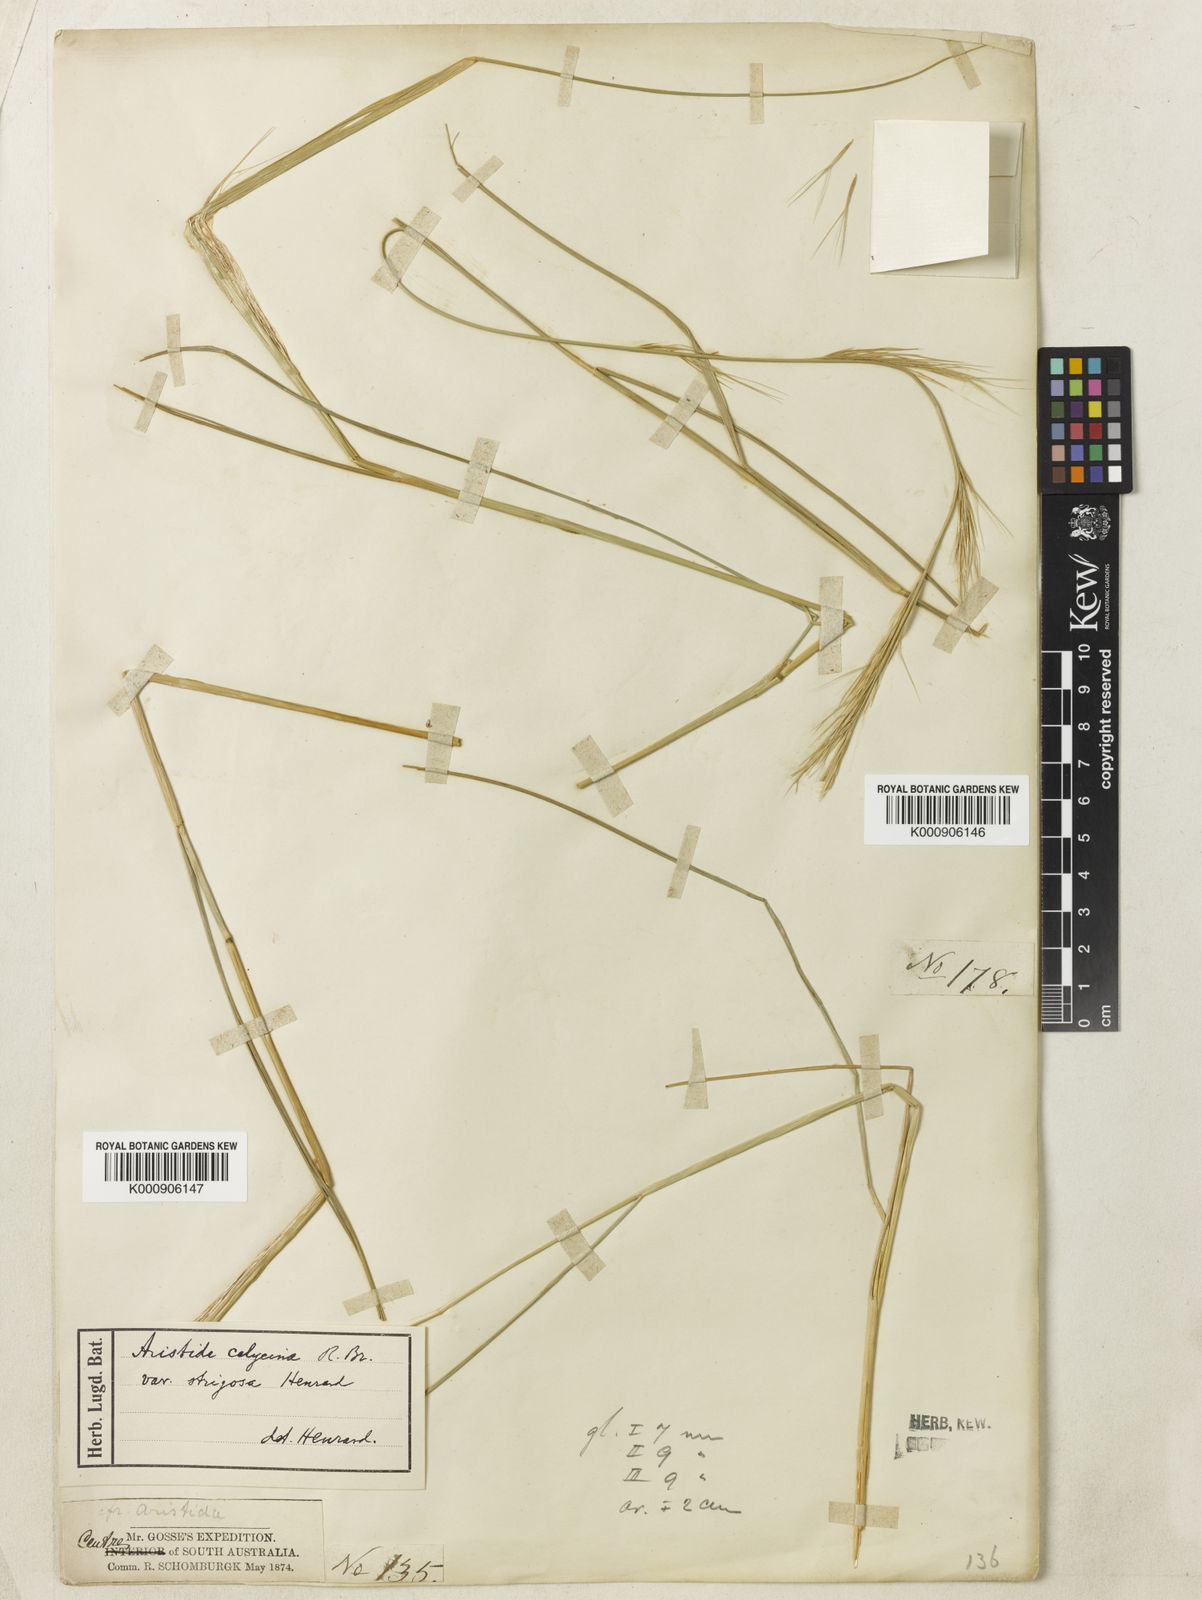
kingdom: Plantae
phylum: Tracheophyta
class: Liliopsida
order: Poales
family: Poaceae
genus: Aristida
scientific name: Aristida strigosa
